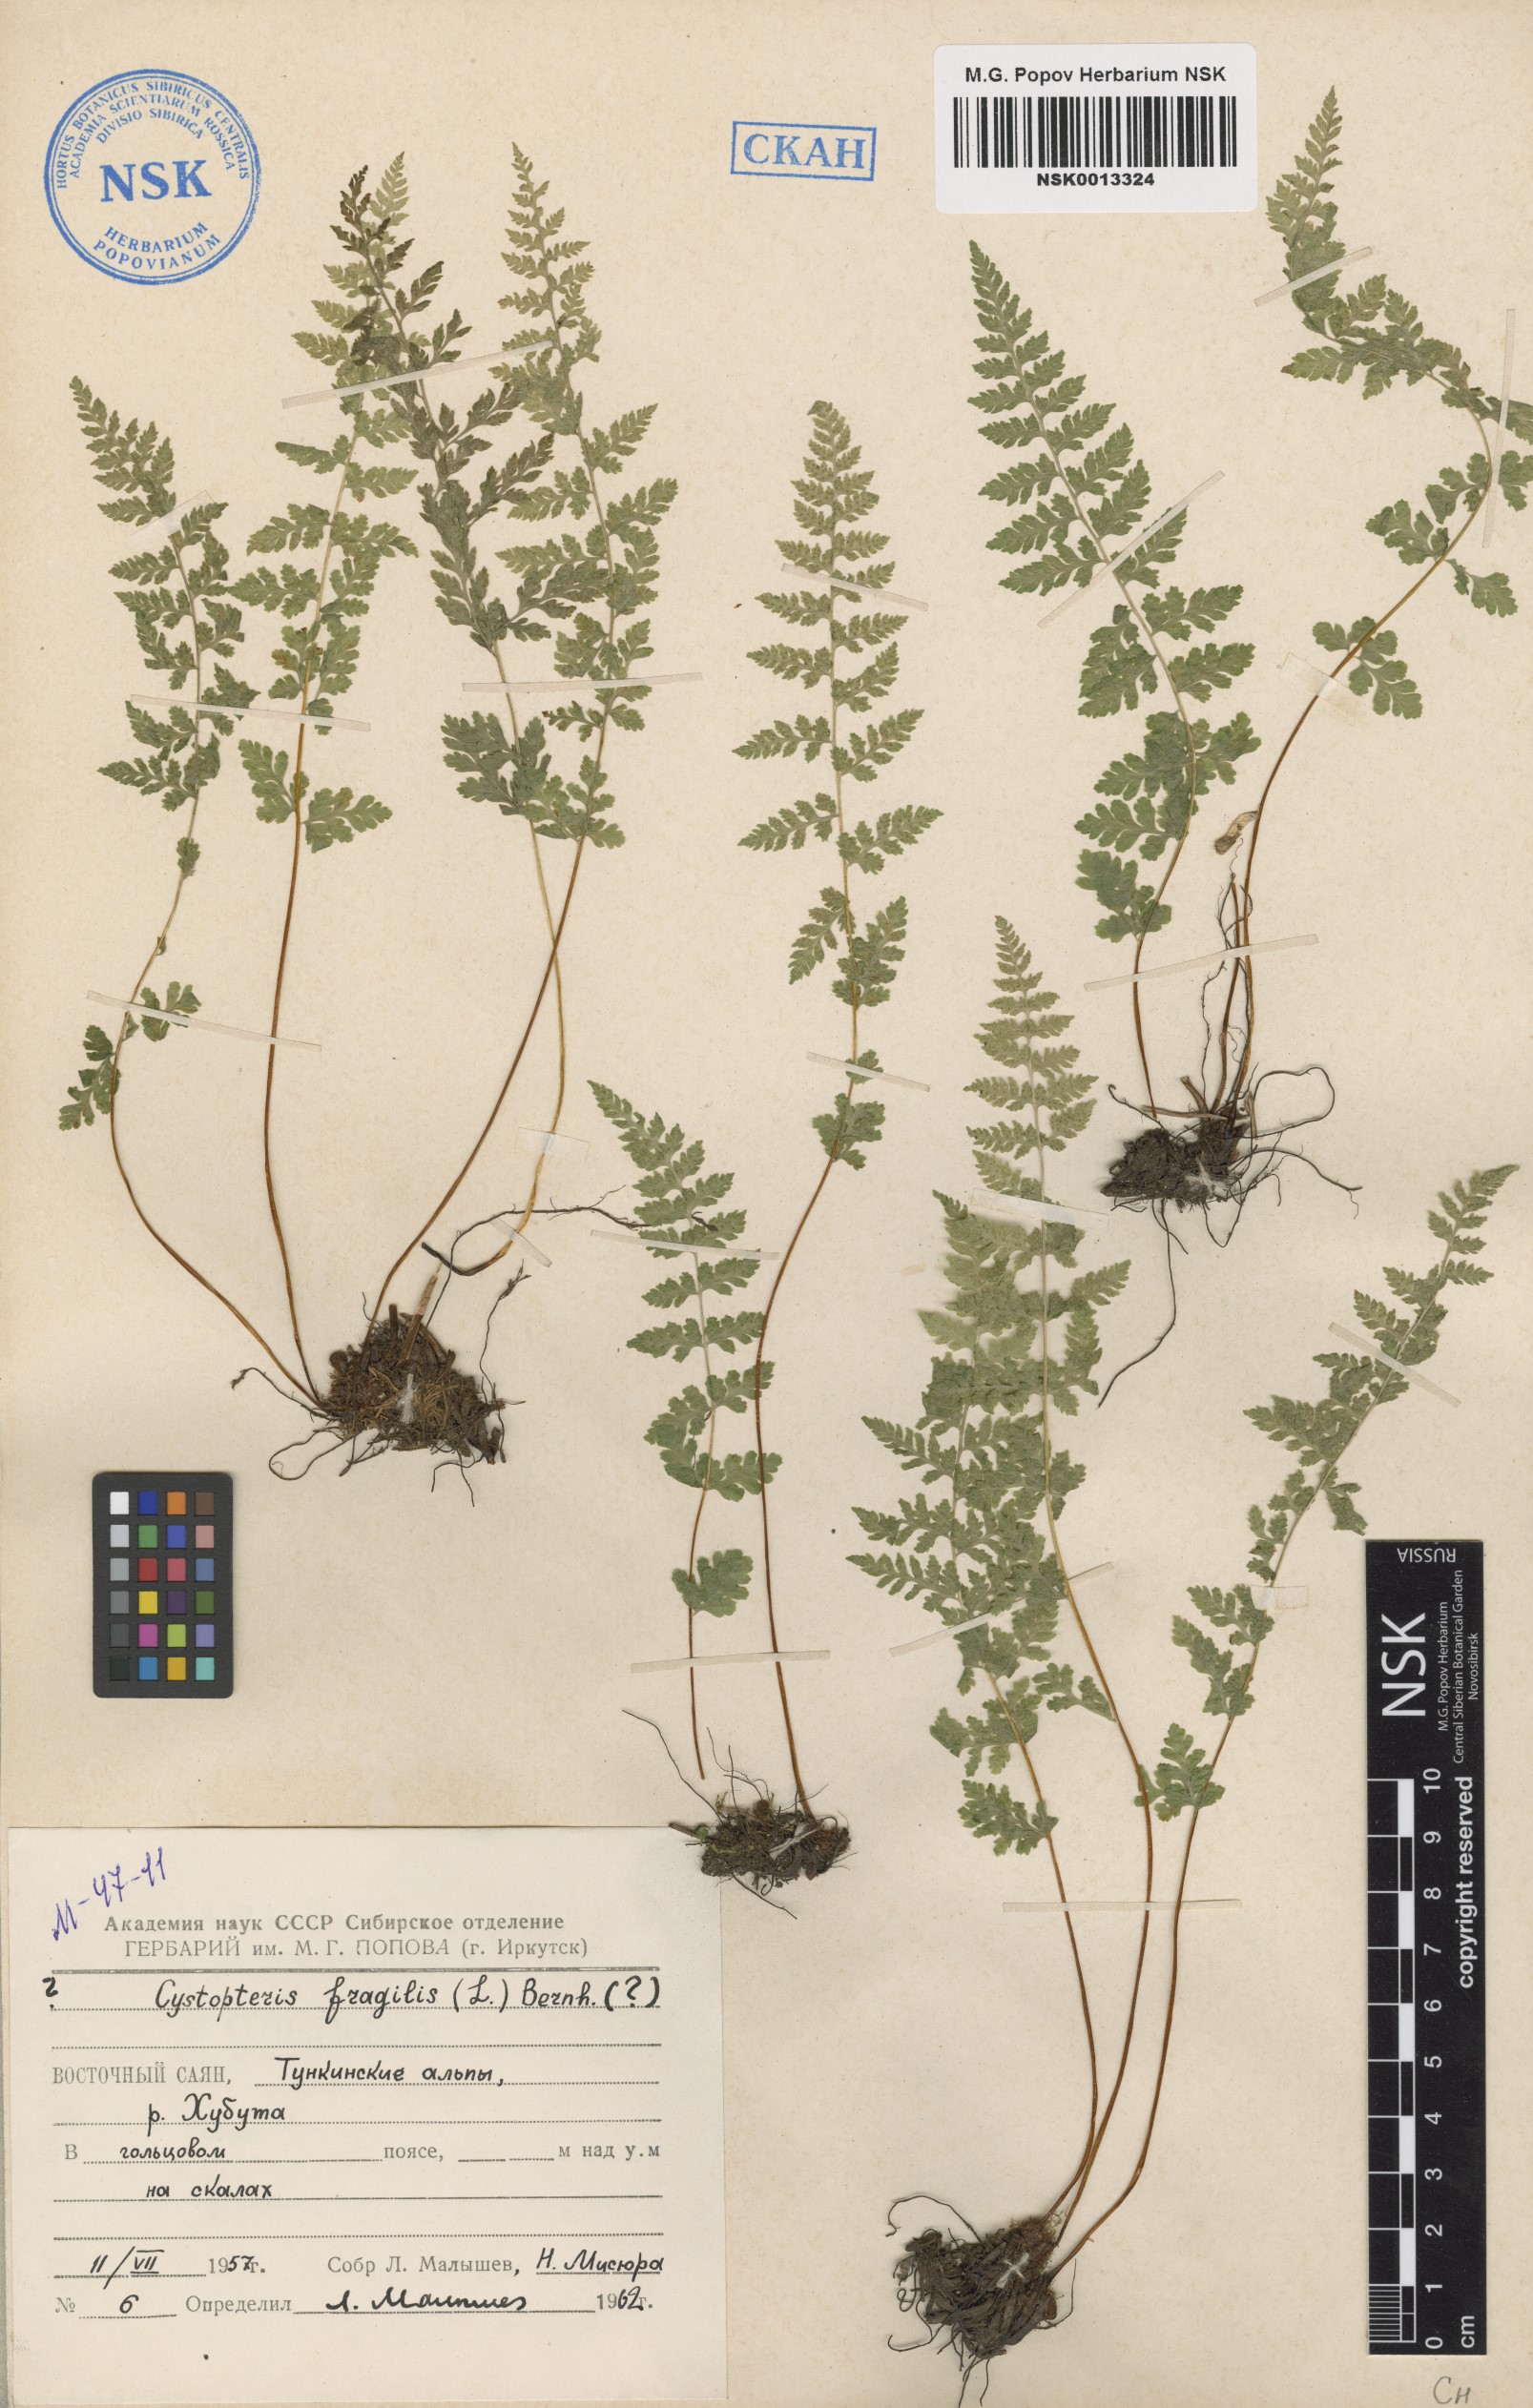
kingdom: Plantae
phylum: Tracheophyta
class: Polypodiopsida
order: Polypodiales
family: Cystopteridaceae
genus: Cystopteris
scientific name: Cystopteris fragilis
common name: Brittle bladder fern
